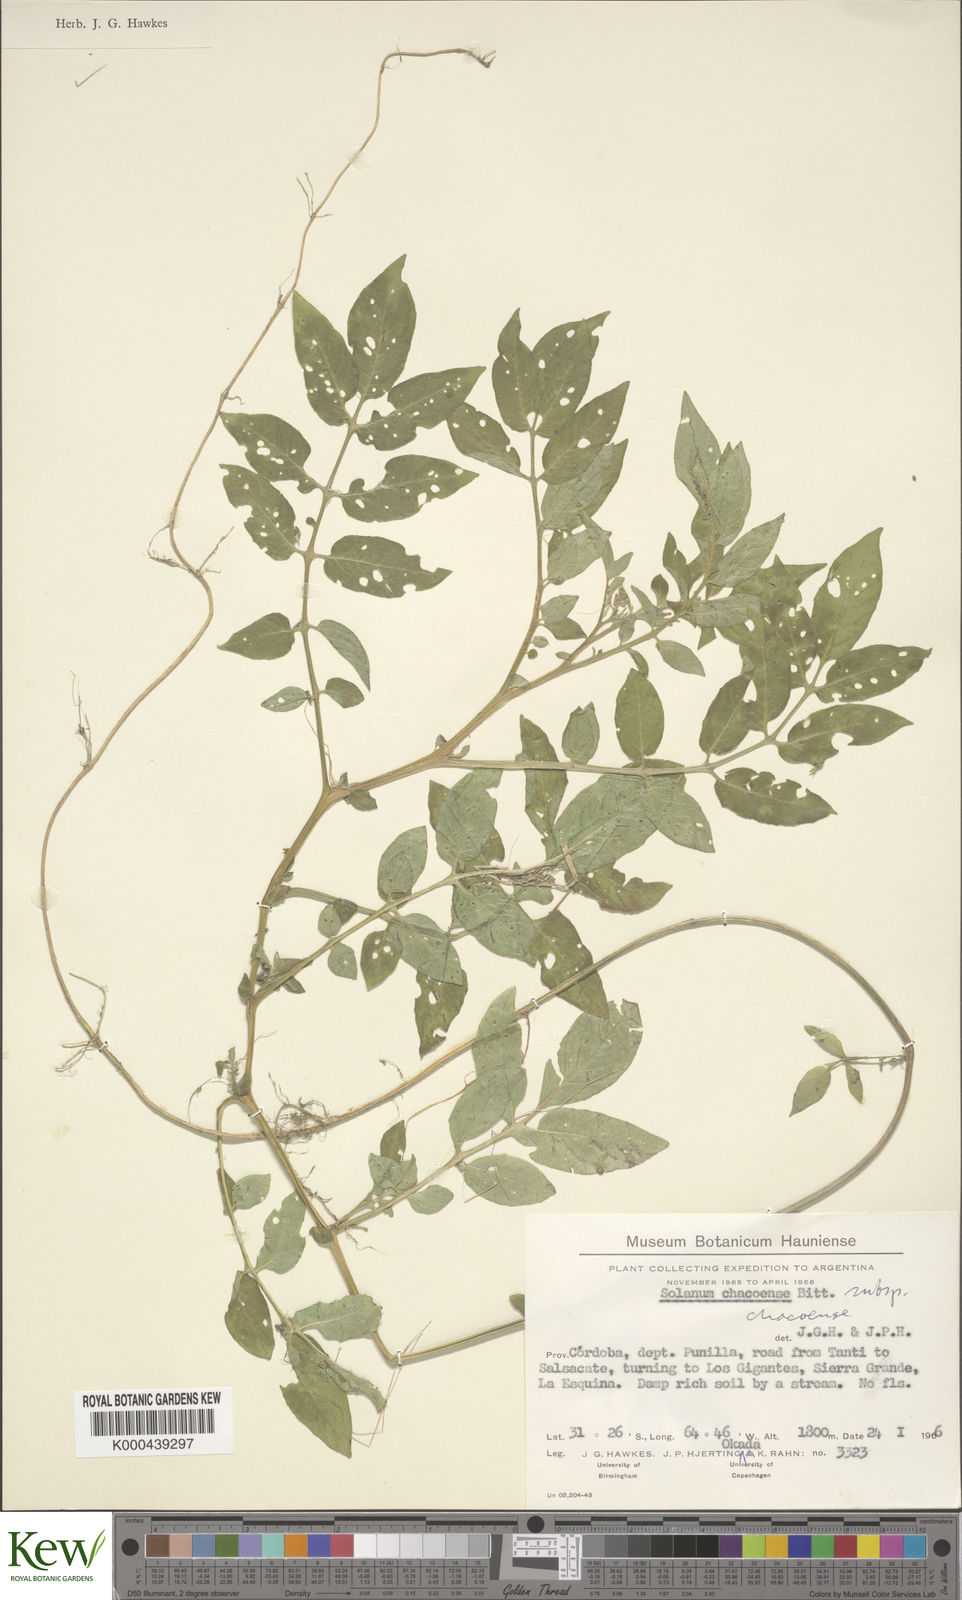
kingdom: Plantae
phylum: Tracheophyta
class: Magnoliopsida
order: Solanales
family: Solanaceae
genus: Solanum
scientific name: Solanum chacoense
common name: Chaco potato
